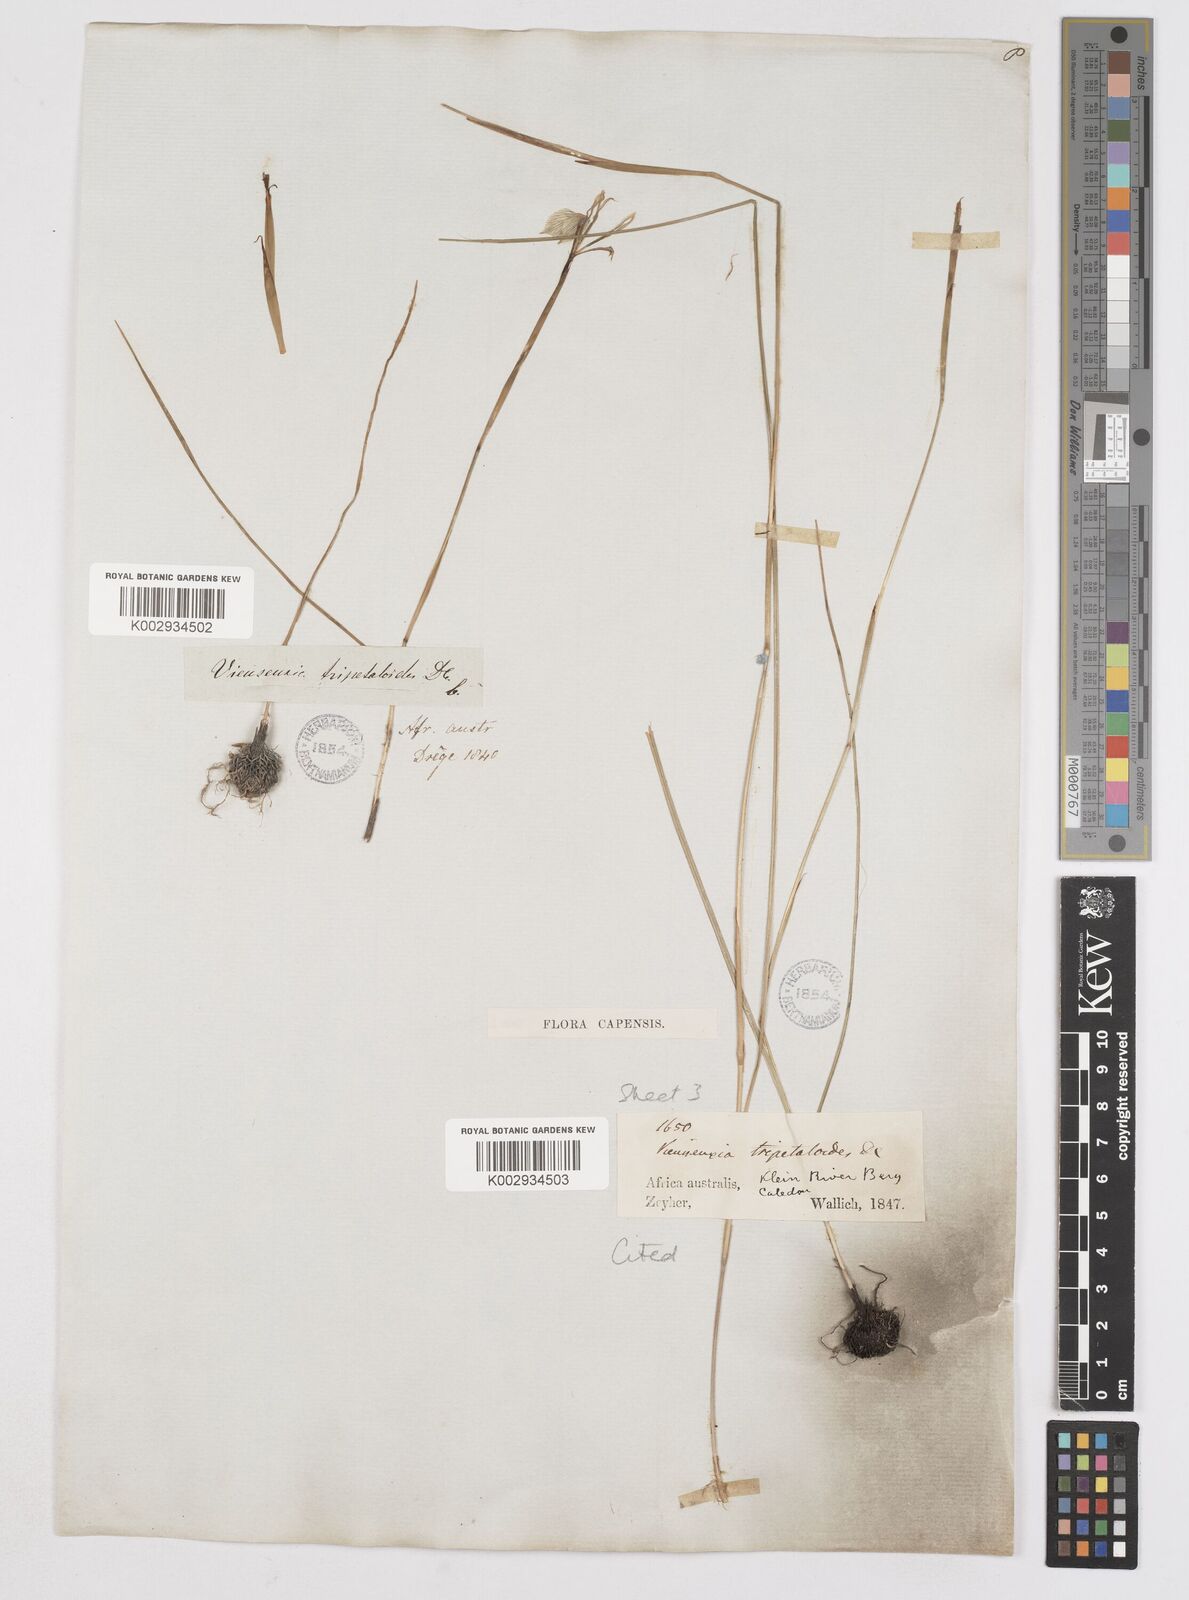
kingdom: Plantae
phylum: Tracheophyta
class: Liliopsida
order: Asparagales
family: Iridaceae
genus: Moraea
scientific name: Moraea tripetala
